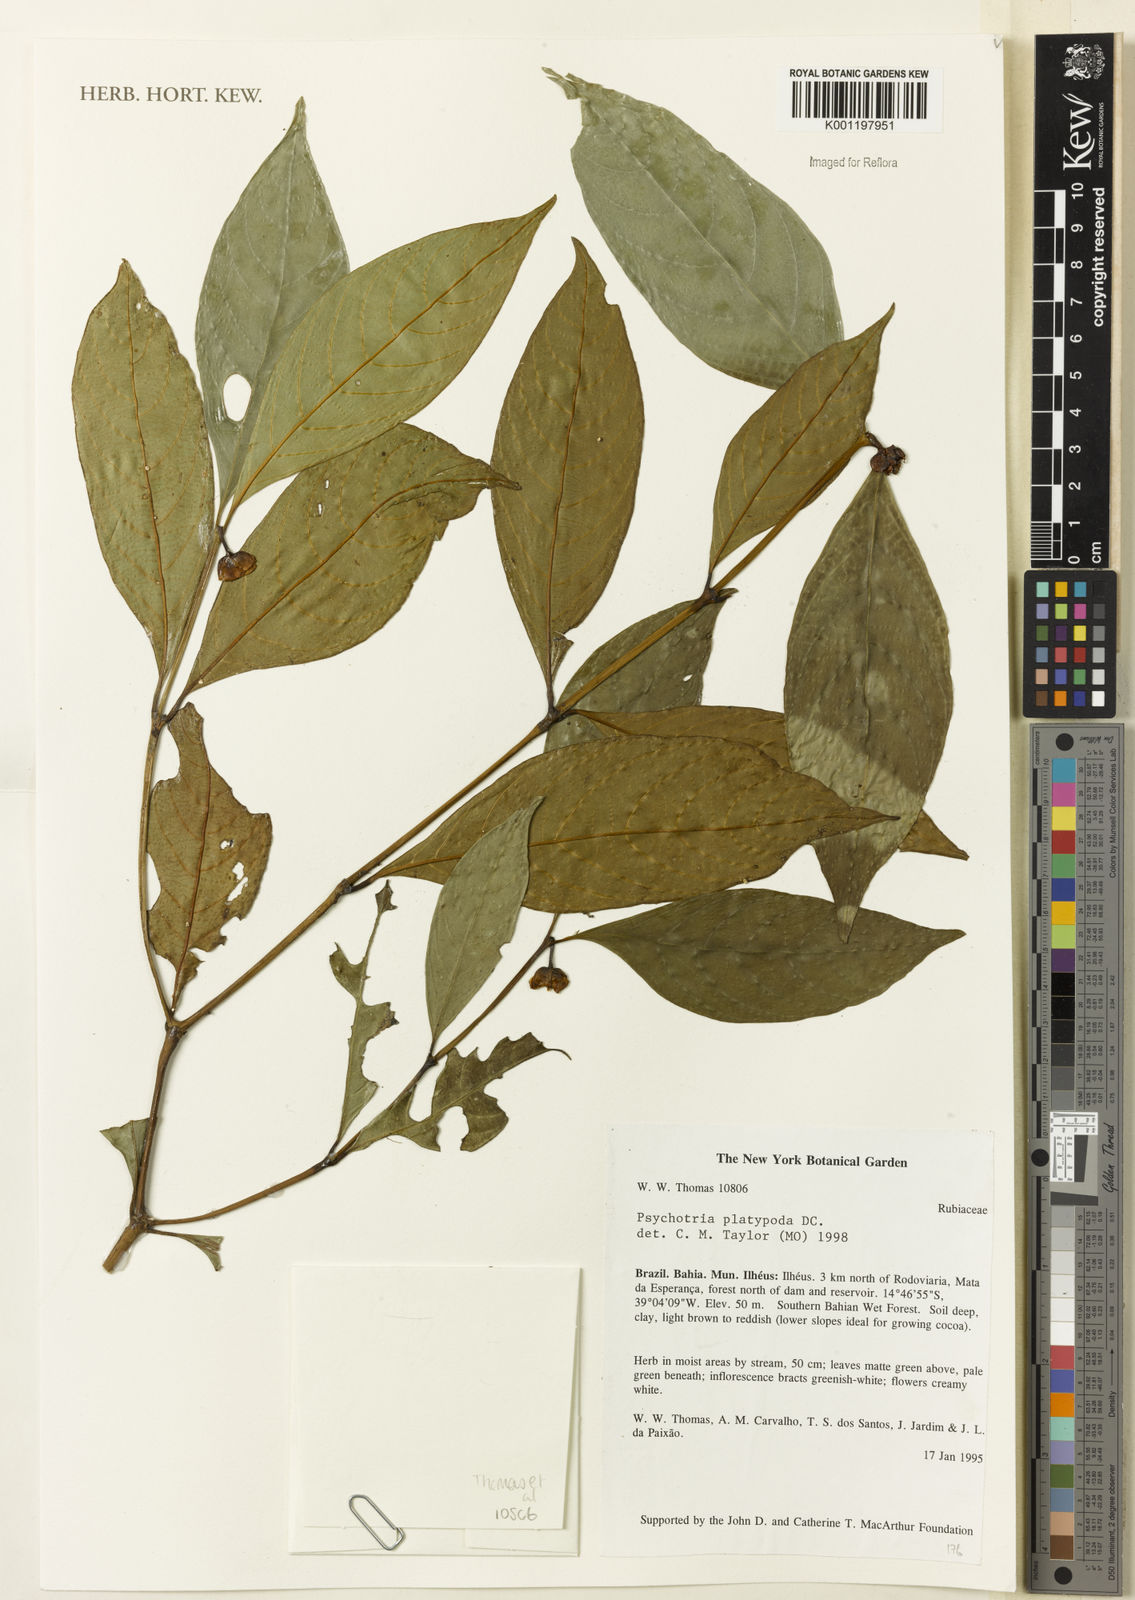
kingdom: Plantae
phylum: Tracheophyta
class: Magnoliopsida
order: Gentianales
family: Rubiaceae
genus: Palicourea
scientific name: Palicourea dichotoma
